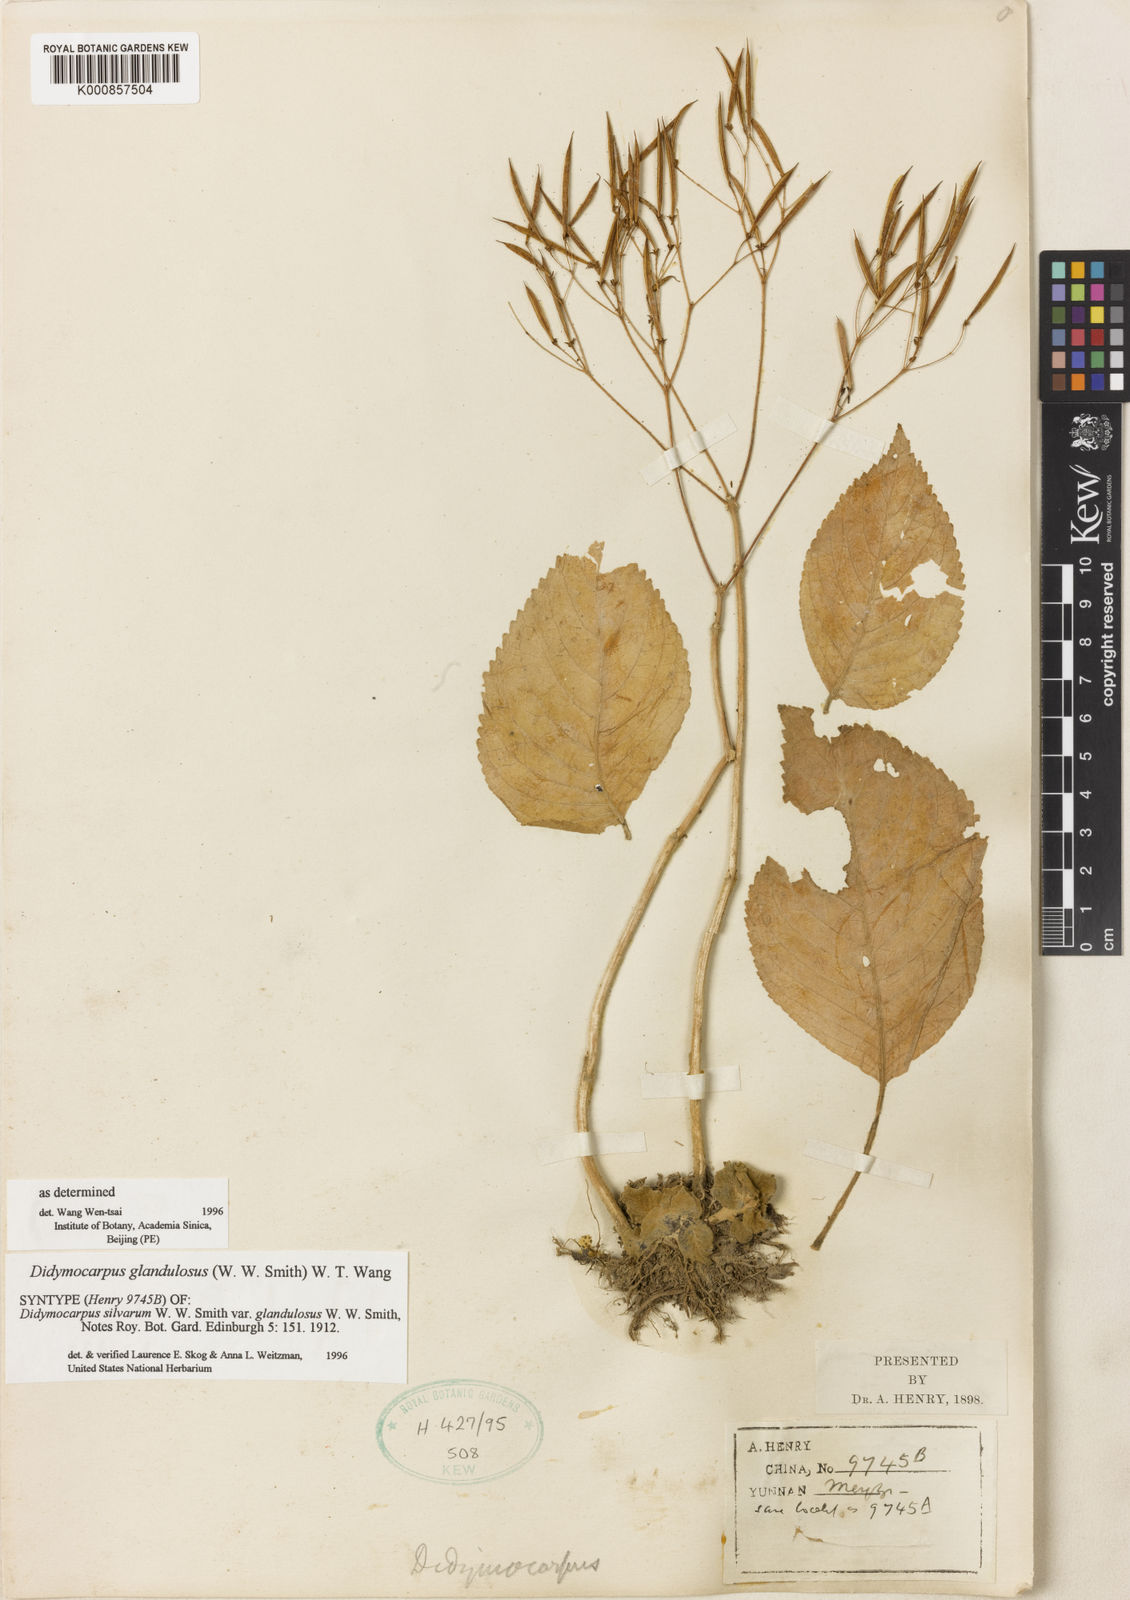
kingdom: Plantae
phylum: Tracheophyta
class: Magnoliopsida
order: Lamiales
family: Gesneriaceae
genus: Didymocarpus
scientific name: Didymocarpus glandulosus
